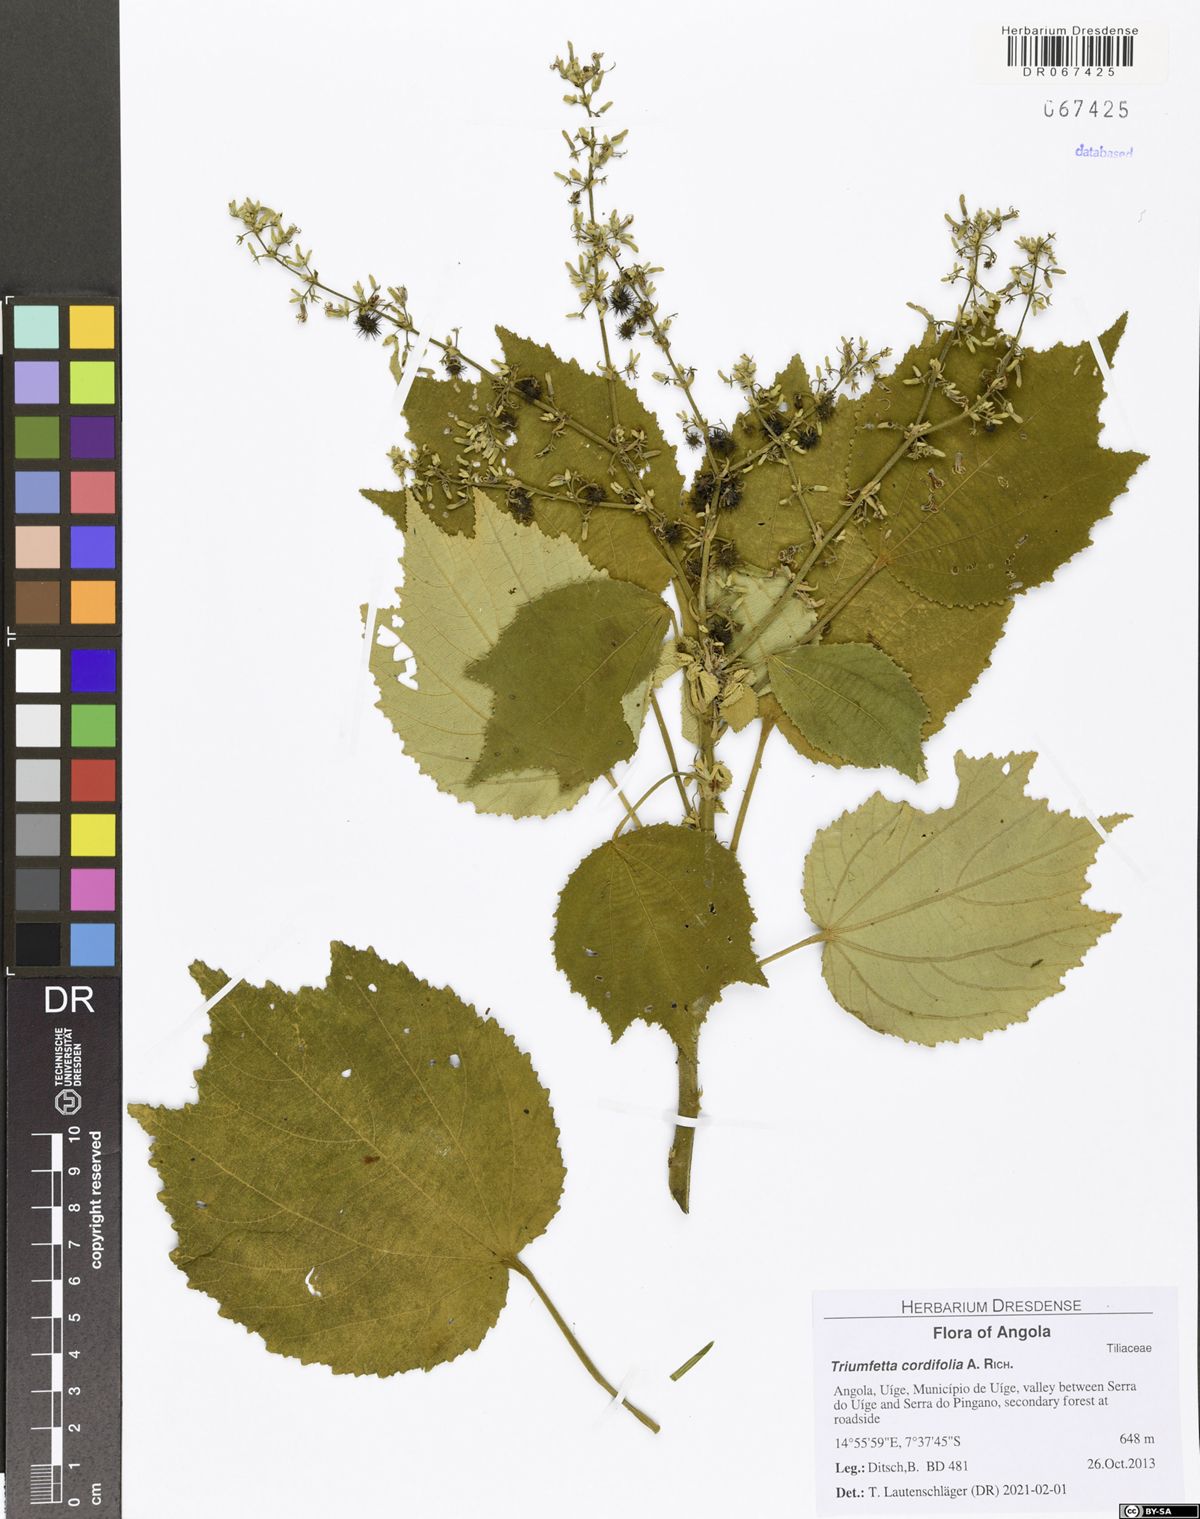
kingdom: Plantae
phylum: Tracheophyta
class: Magnoliopsida
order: Malvales
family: Malvaceae
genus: Triumfetta
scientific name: Triumfetta cordifolia
